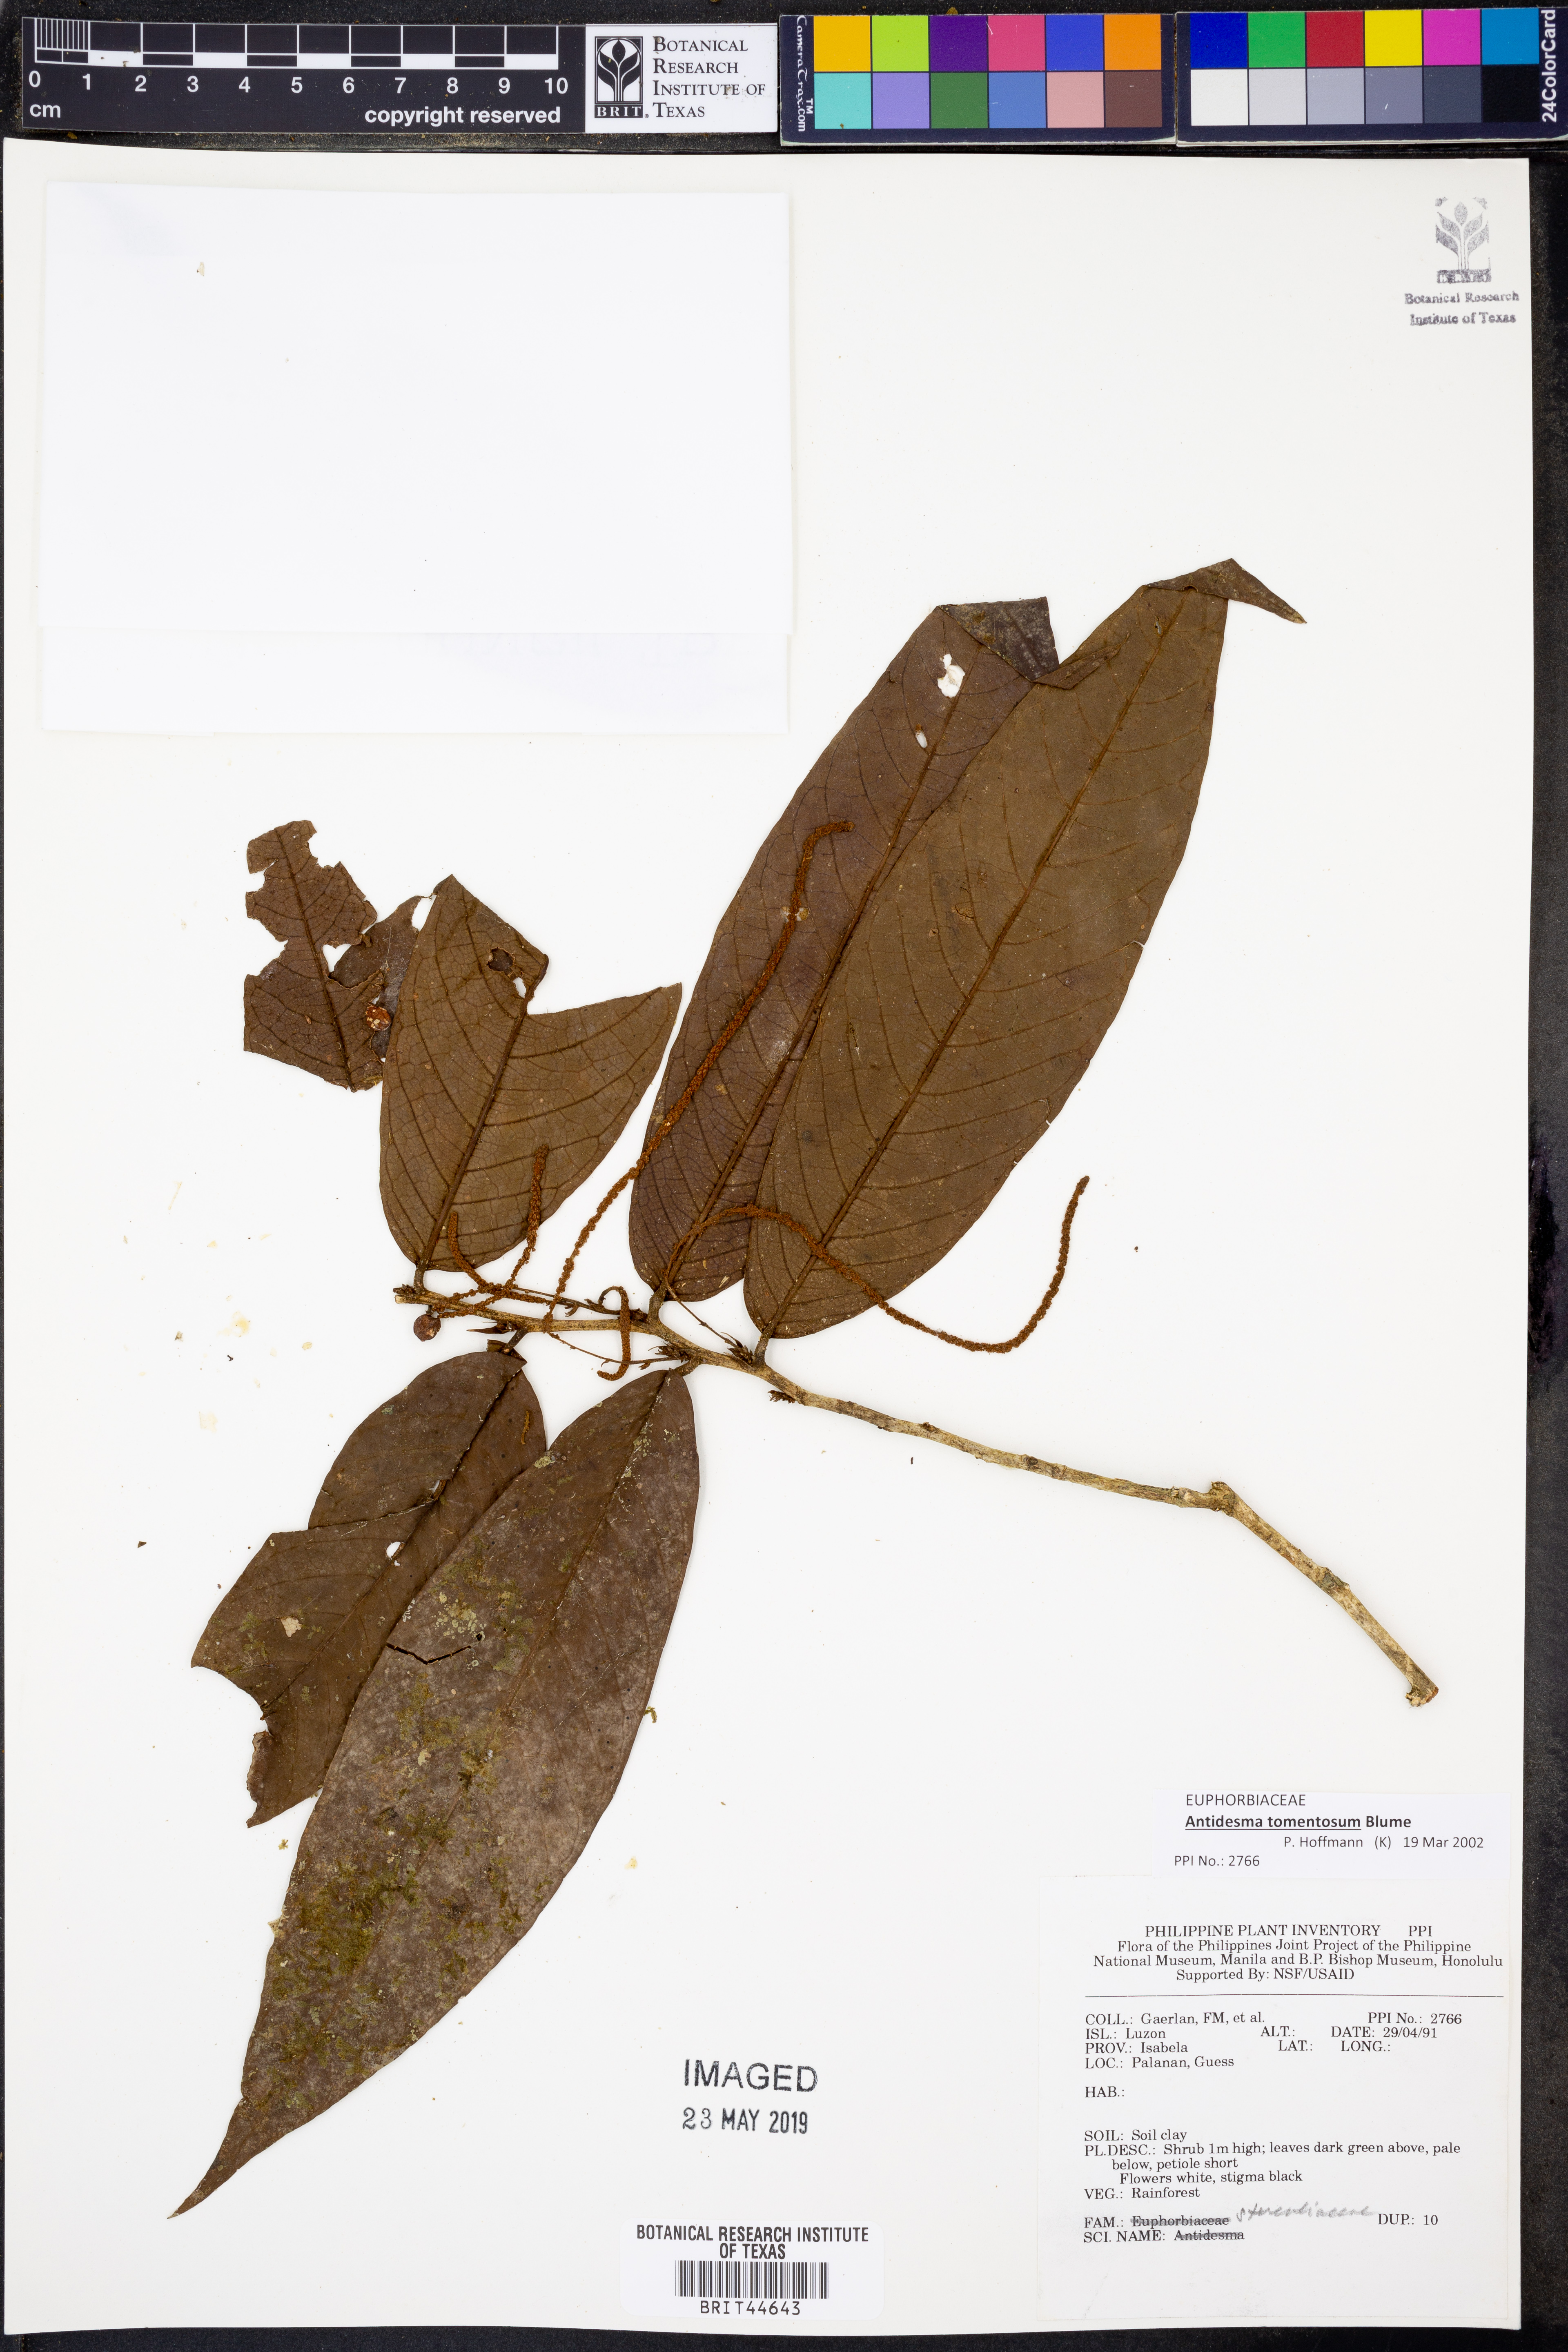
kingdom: Plantae
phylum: Tracheophyta
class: Magnoliopsida
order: Malpighiales
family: Phyllanthaceae
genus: Antidesma
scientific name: Antidesma tomentosum
